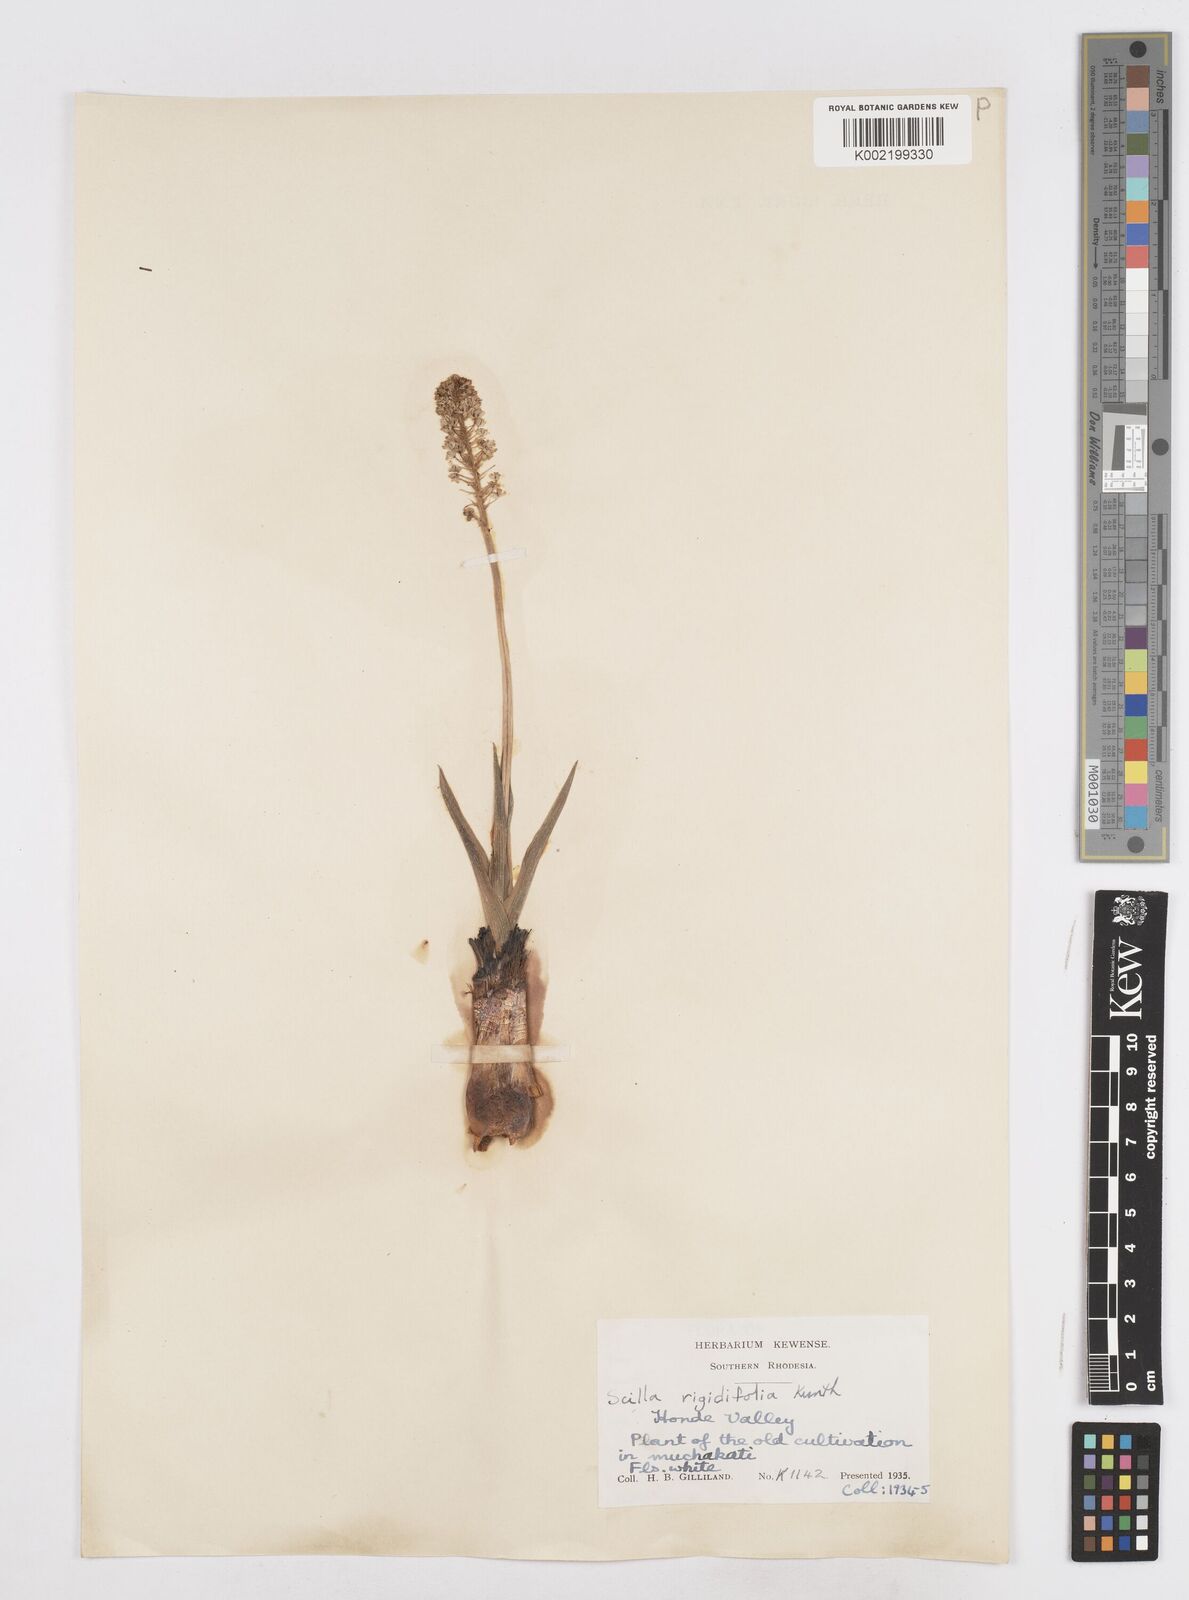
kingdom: Plantae
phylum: Tracheophyta
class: Liliopsida
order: Asparagales
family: Asparagaceae
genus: Schizocarphus
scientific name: Schizocarphus nervosus
